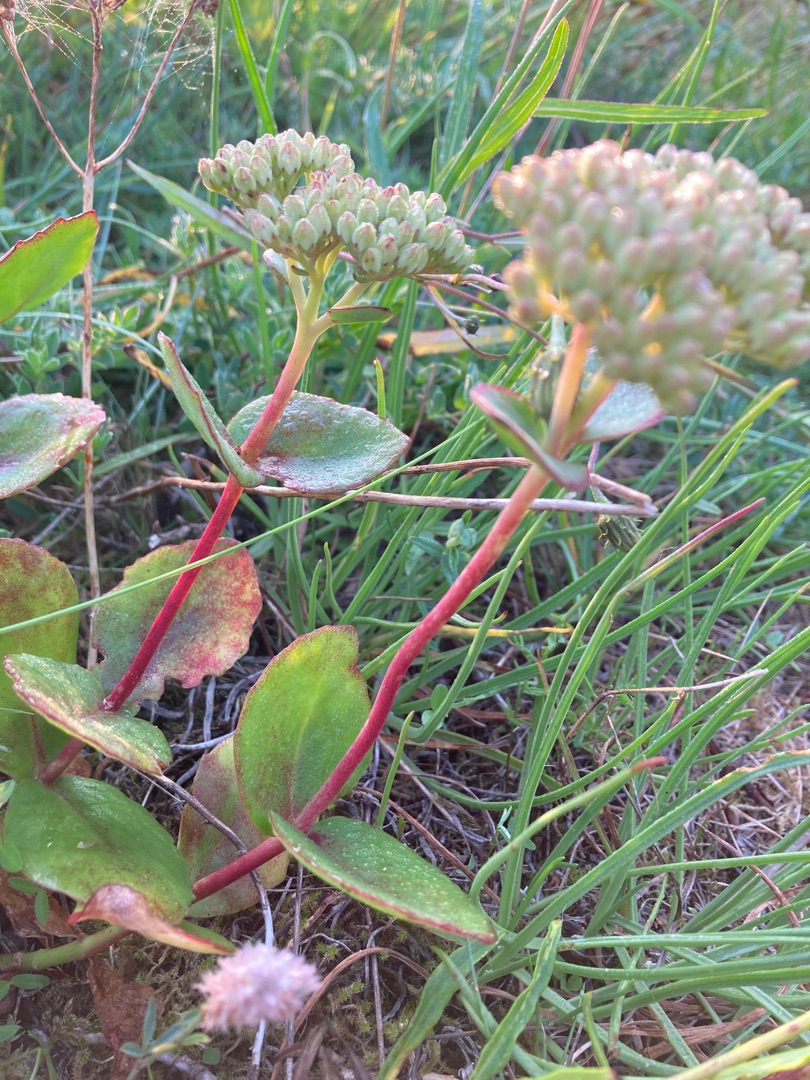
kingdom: Plantae
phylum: Tracheophyta
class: Magnoliopsida
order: Saxifragales
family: Crassulaceae
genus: Hylotelephium
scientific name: Hylotelephium maximum
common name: Almindelig sankthansurt
